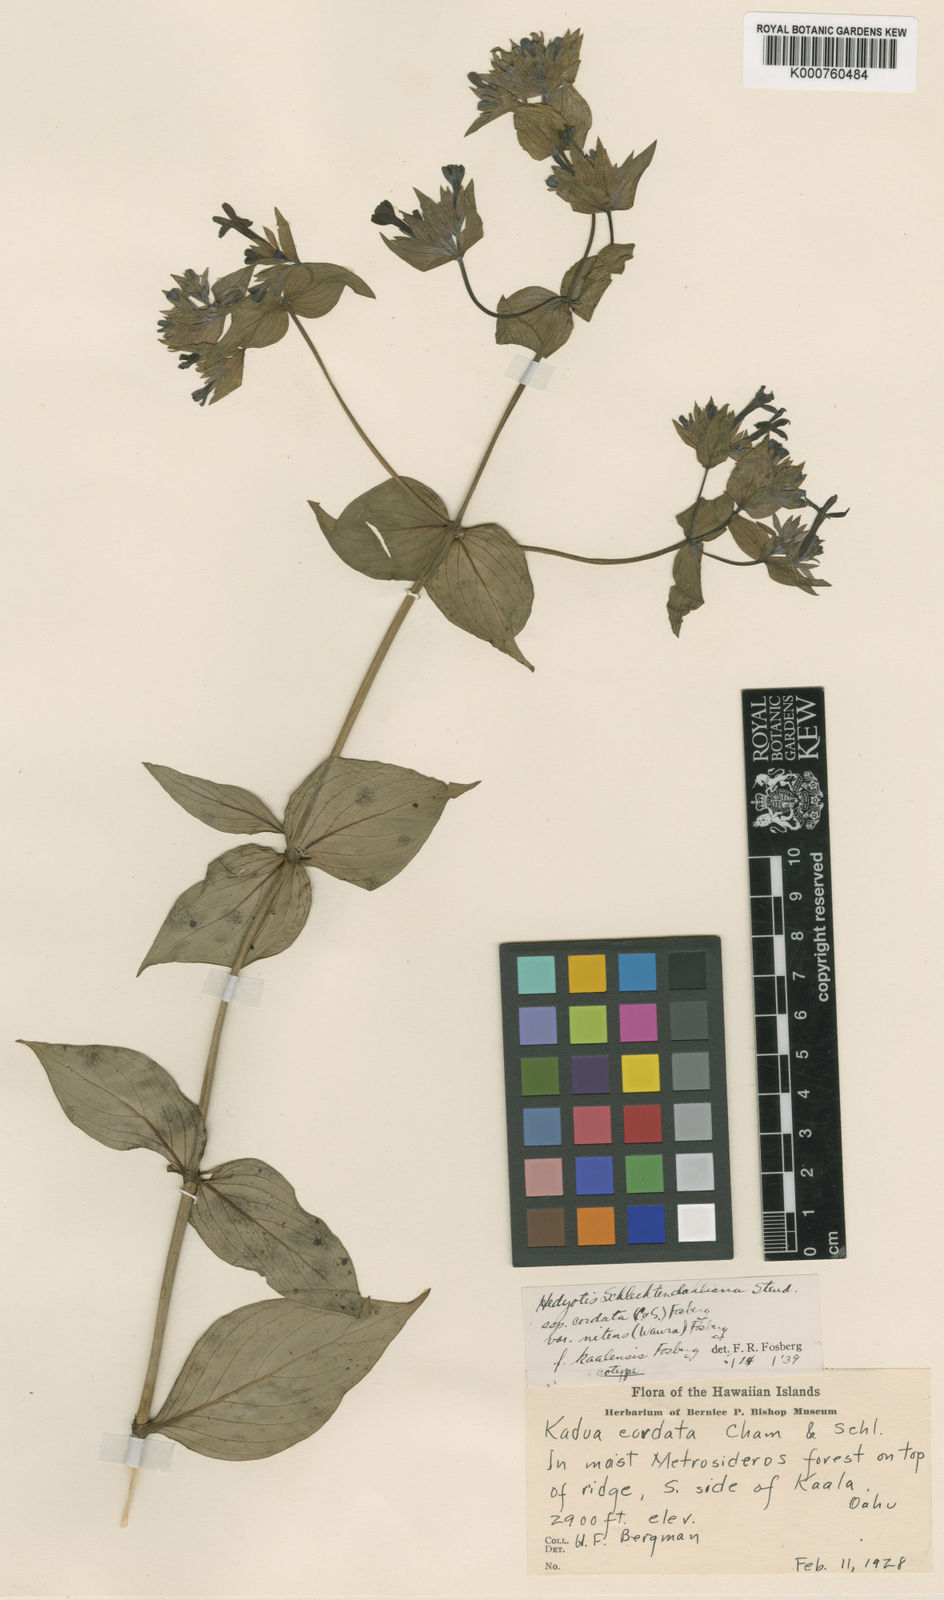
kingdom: Plantae
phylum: Tracheophyta
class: Magnoliopsida
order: Gentianales
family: Rubiaceae
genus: Kadua
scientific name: Kadua cordata
